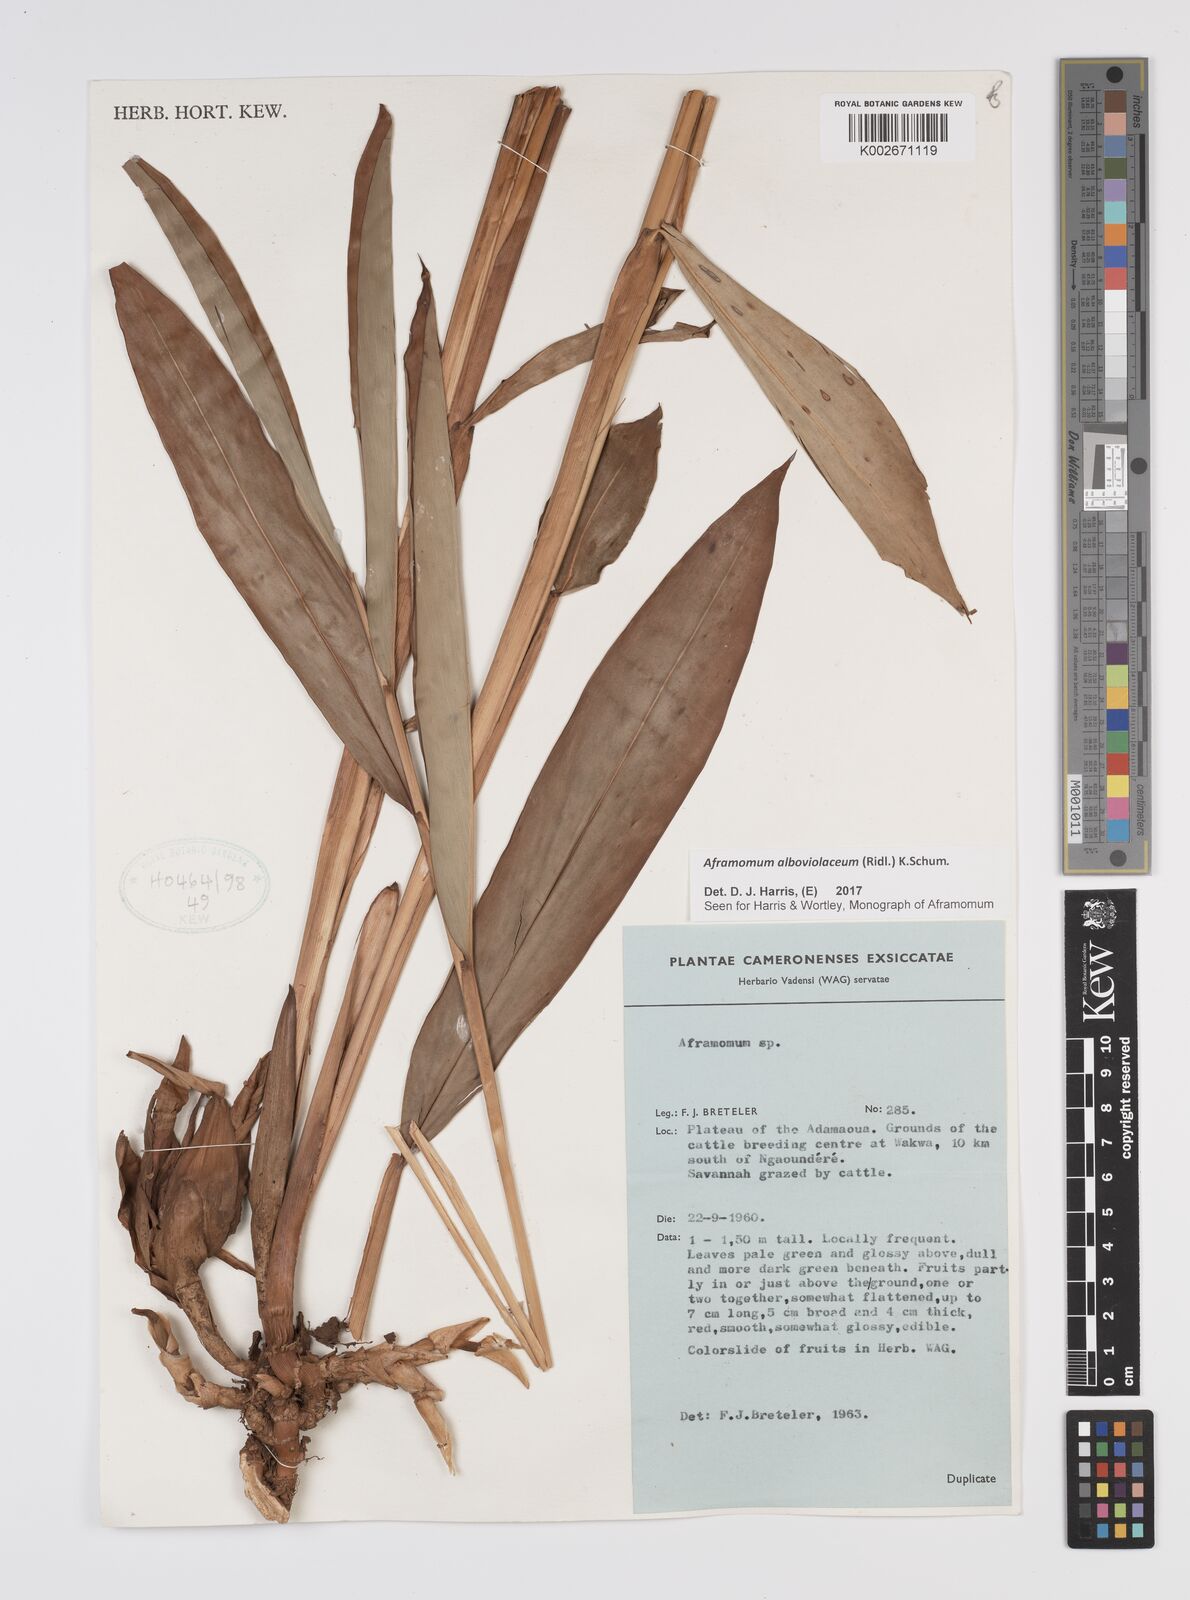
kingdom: Plantae
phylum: Tracheophyta
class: Liliopsida
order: Zingiberales
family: Zingiberaceae
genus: Aframomum
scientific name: Aframomum alboviolaceum
